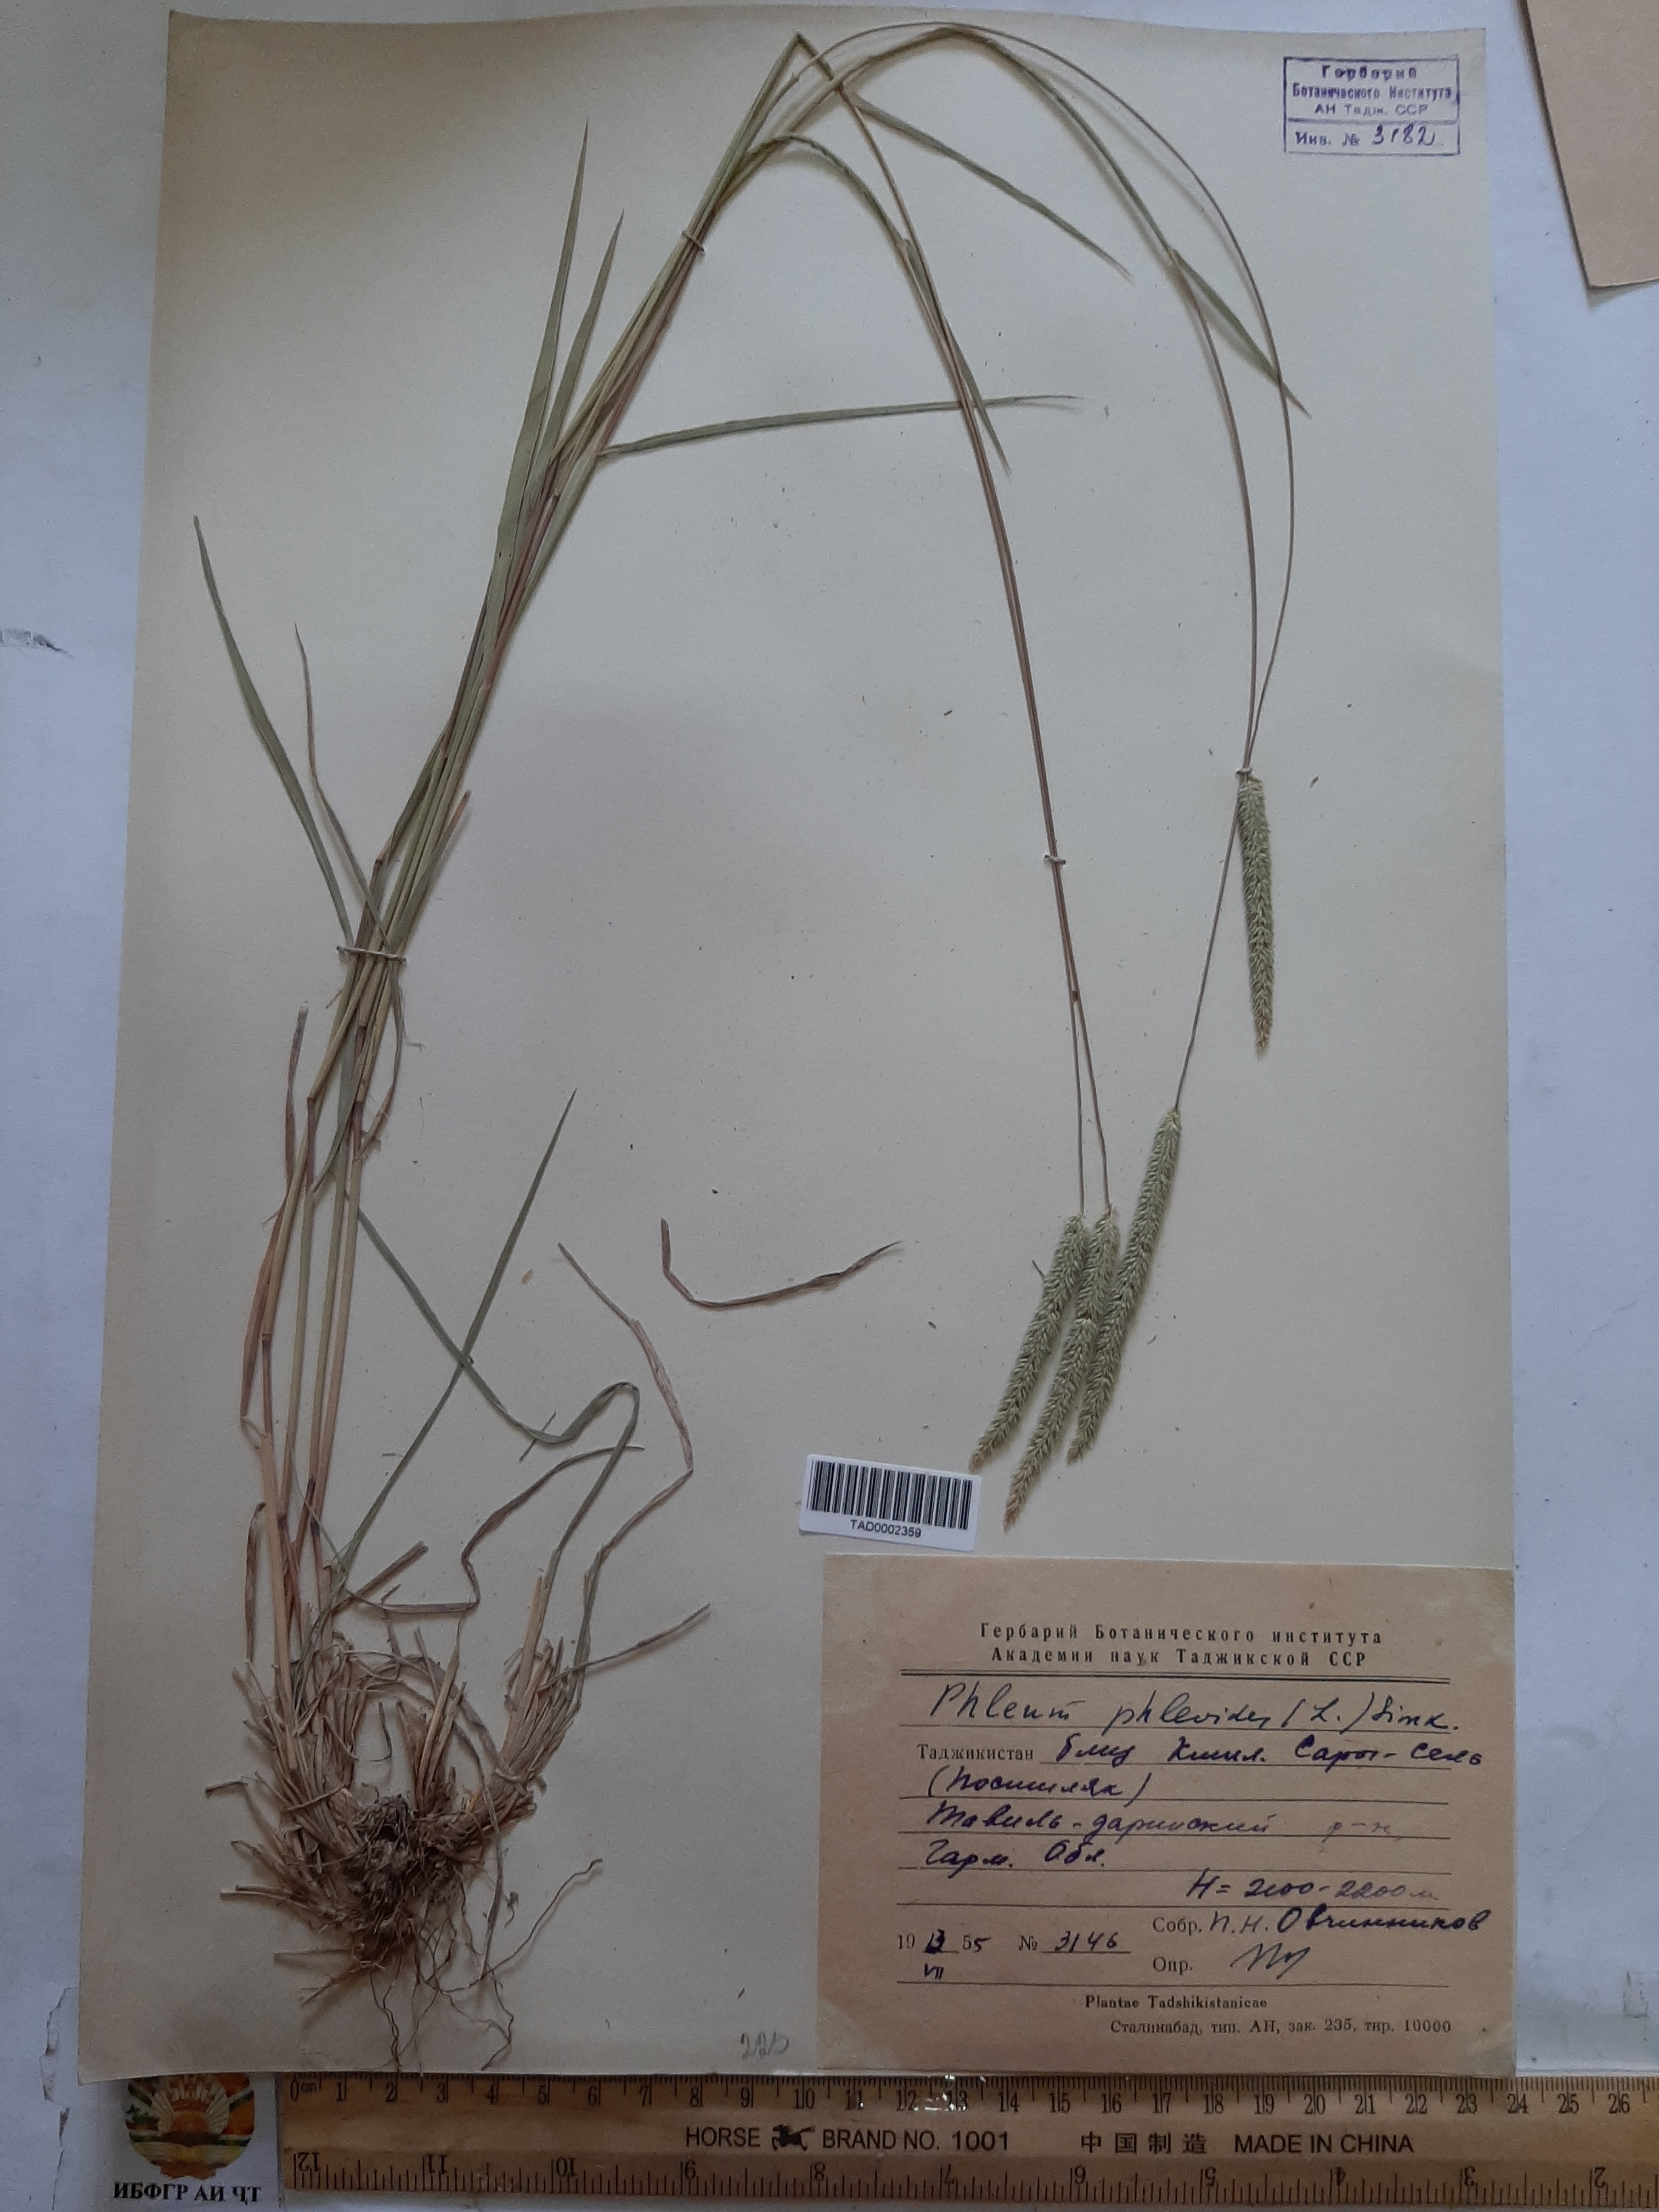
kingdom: Plantae
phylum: Tracheophyta
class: Liliopsida
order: Poales
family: Poaceae
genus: Phleum
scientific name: Phleum phleoides
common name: Purple-stem cat's-tail
